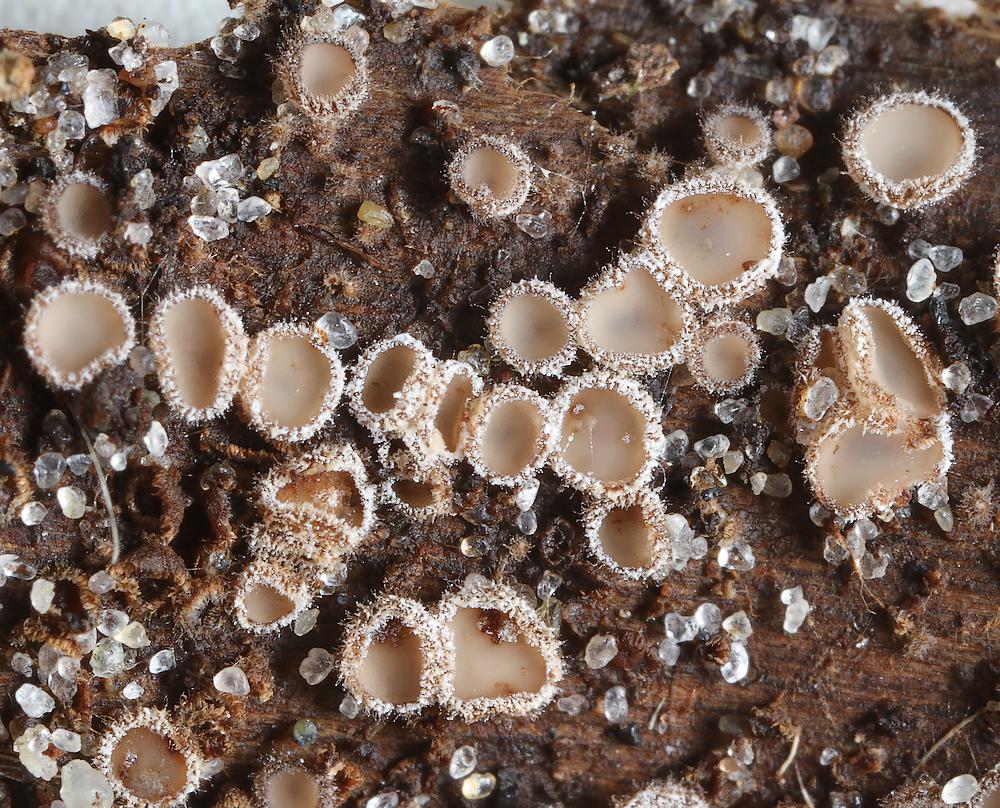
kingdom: Fungi
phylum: Ascomycota
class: Leotiomycetes
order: Helotiales
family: Solenopeziaceae
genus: Lasiobelonium
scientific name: Lasiobelonium variegatum
